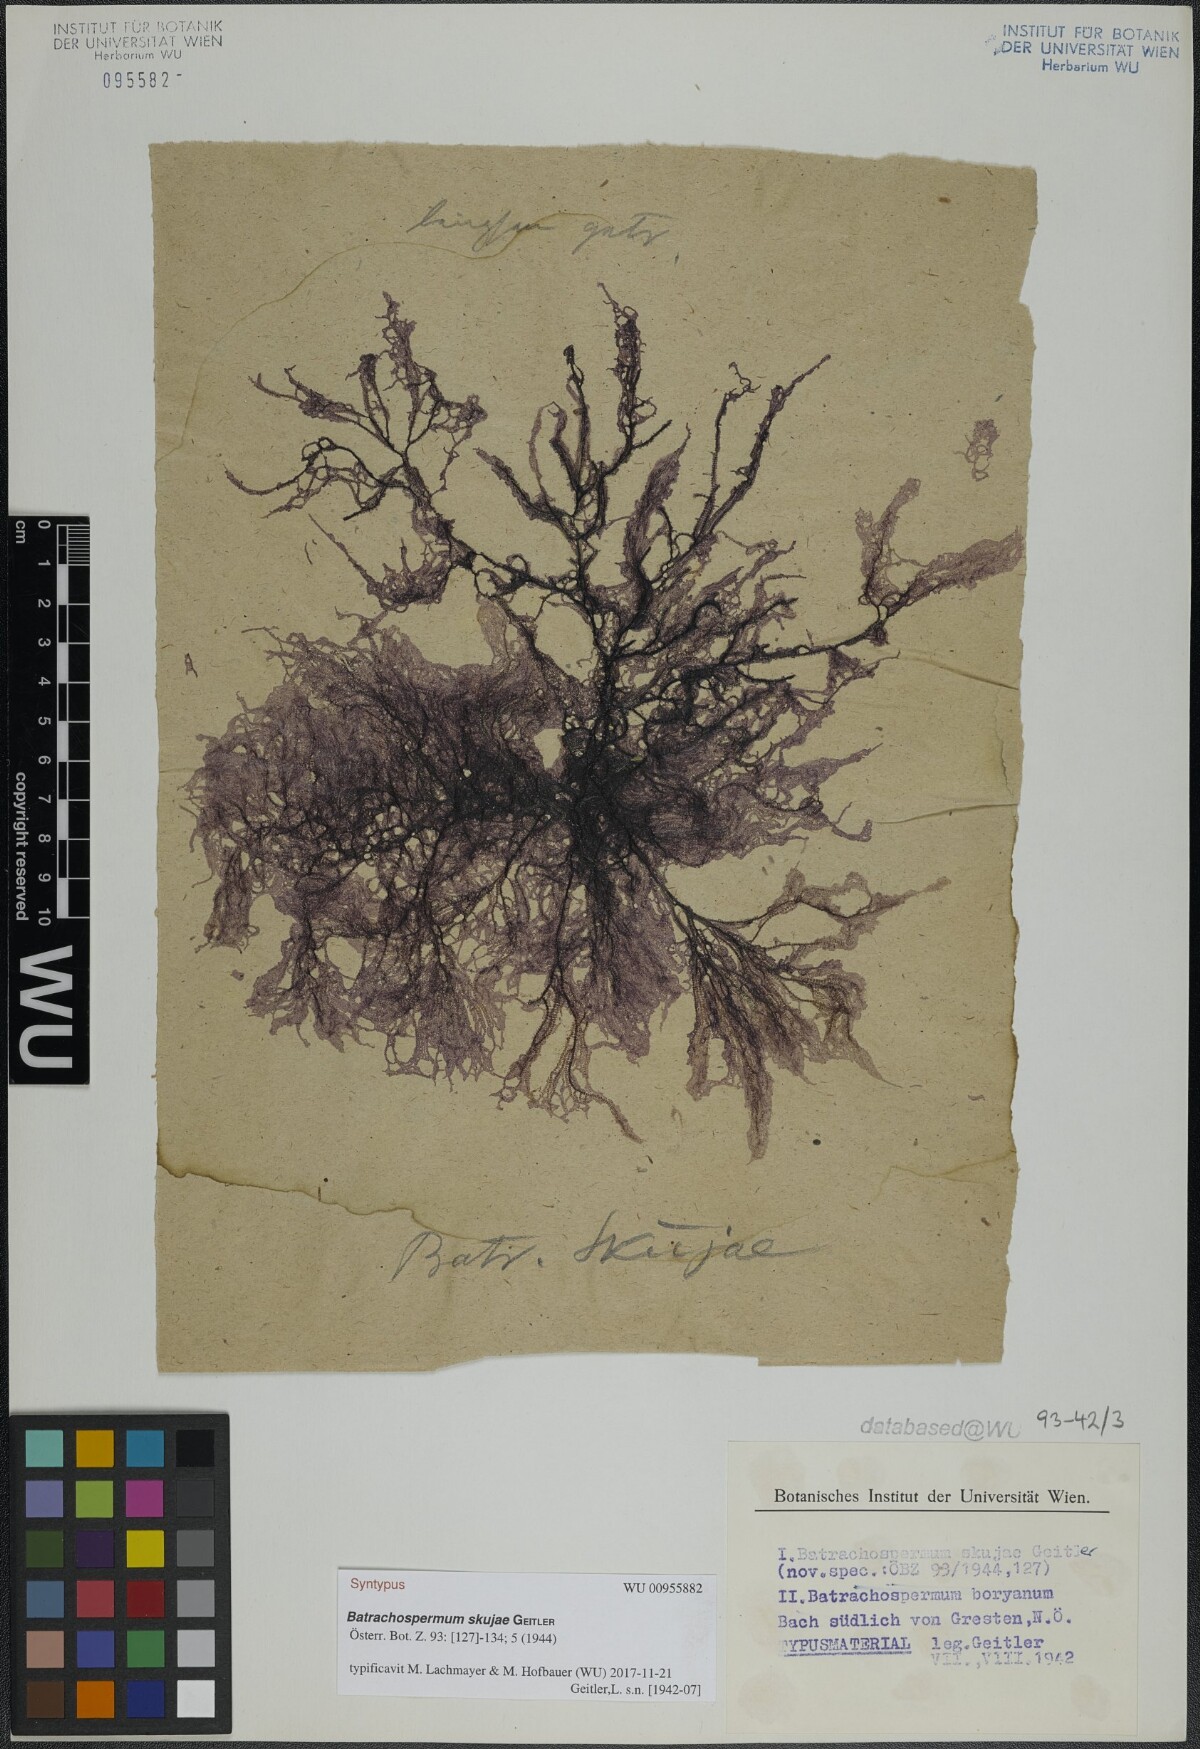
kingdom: Plantae
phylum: Rhodophyta
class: Florideophyceae
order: Batrachospermales
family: Batrachospermaceae
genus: Batrachospermum
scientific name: Batrachospermum gelatinosum
